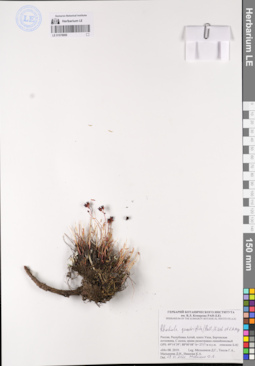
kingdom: Plantae
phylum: Tracheophyta
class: Magnoliopsida
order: Saxifragales
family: Crassulaceae
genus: Rhodiola
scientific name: Rhodiola quadrifida
